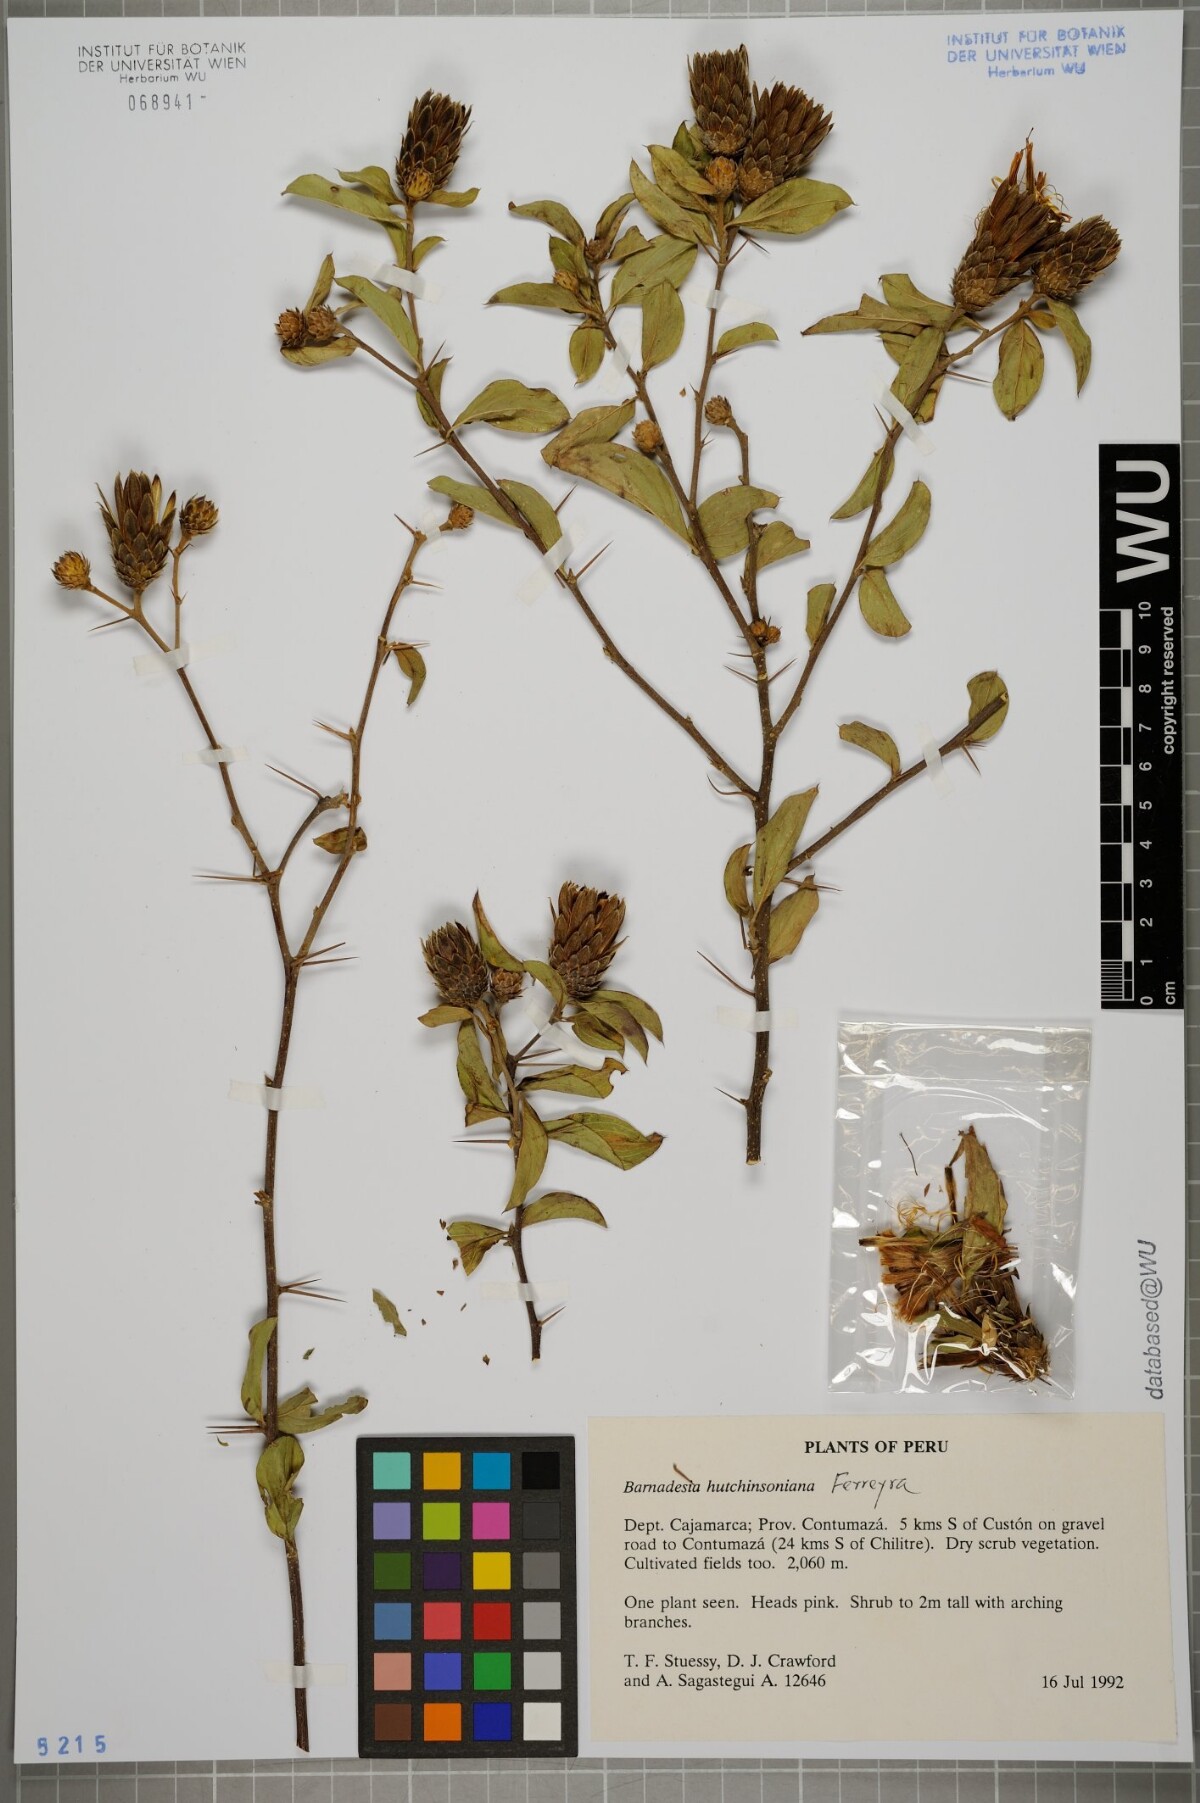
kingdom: Plantae
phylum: Tracheophyta
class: Magnoliopsida
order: Asterales
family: Asteraceae
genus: Barnadesia
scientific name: Barnadesia lehmannii
